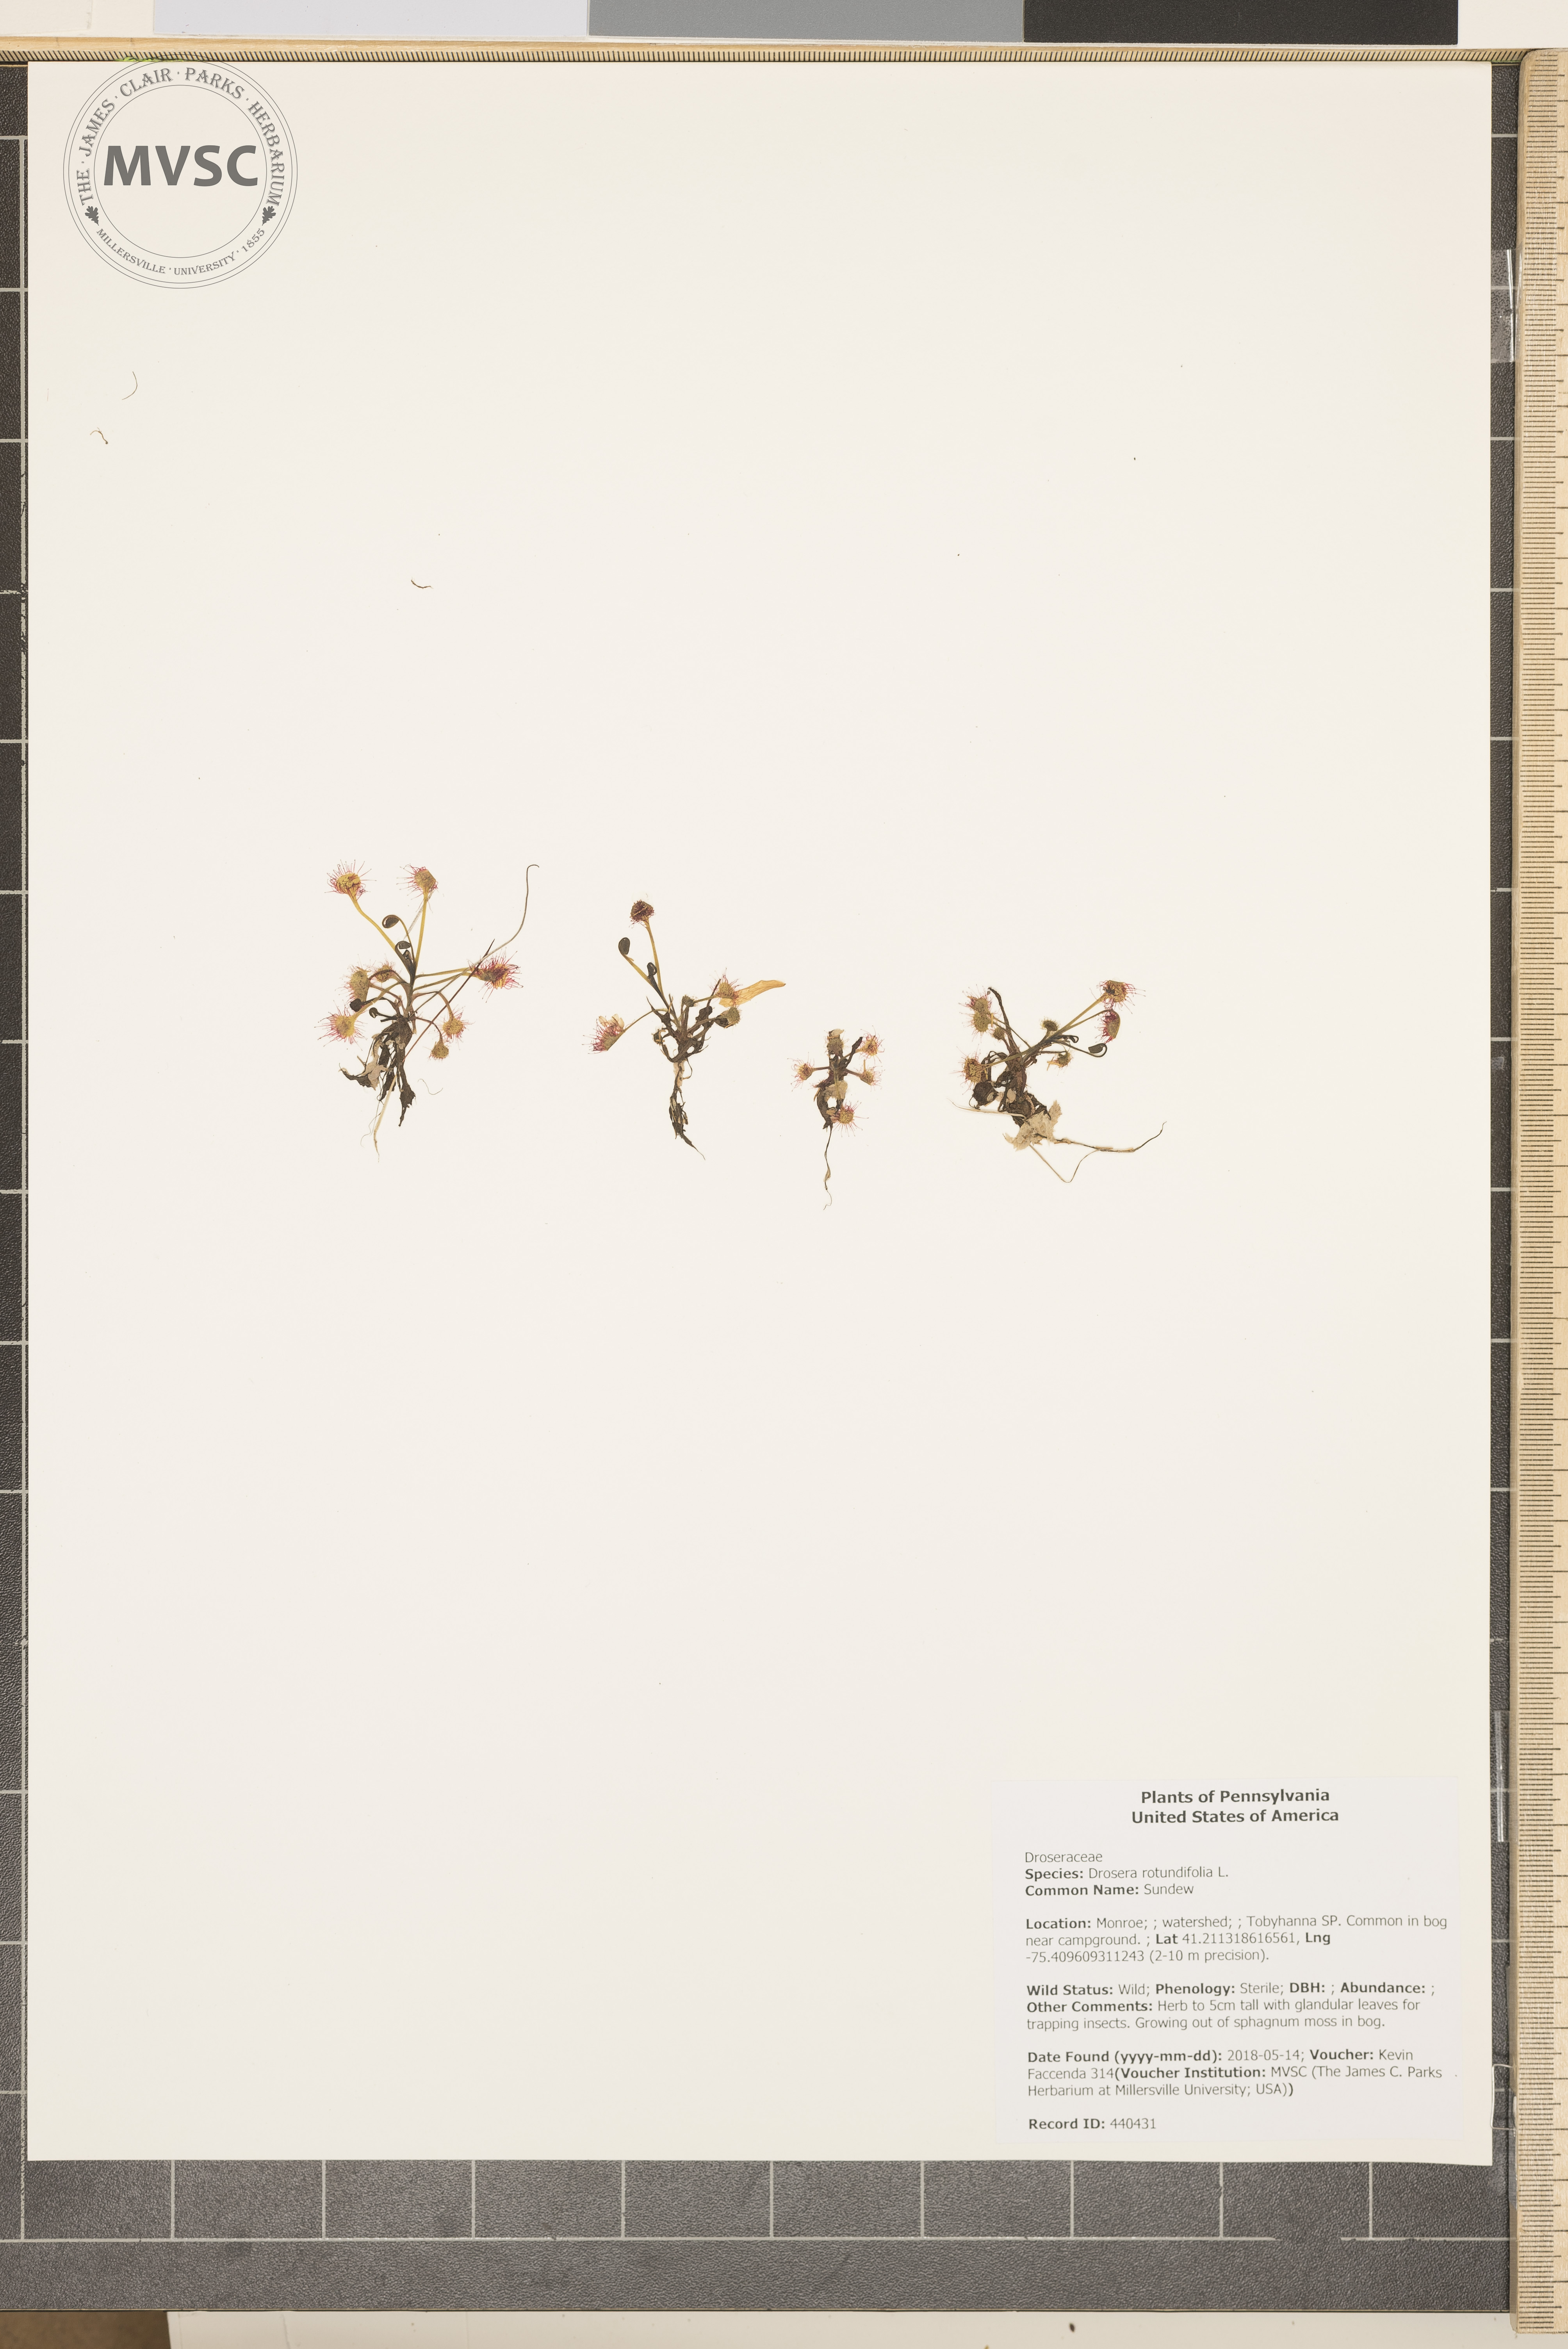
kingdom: Plantae
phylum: Tracheophyta
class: Magnoliopsida
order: Caryophyllales
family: Droseraceae
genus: Drosera
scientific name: Drosera rotundifolia
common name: Sundew
